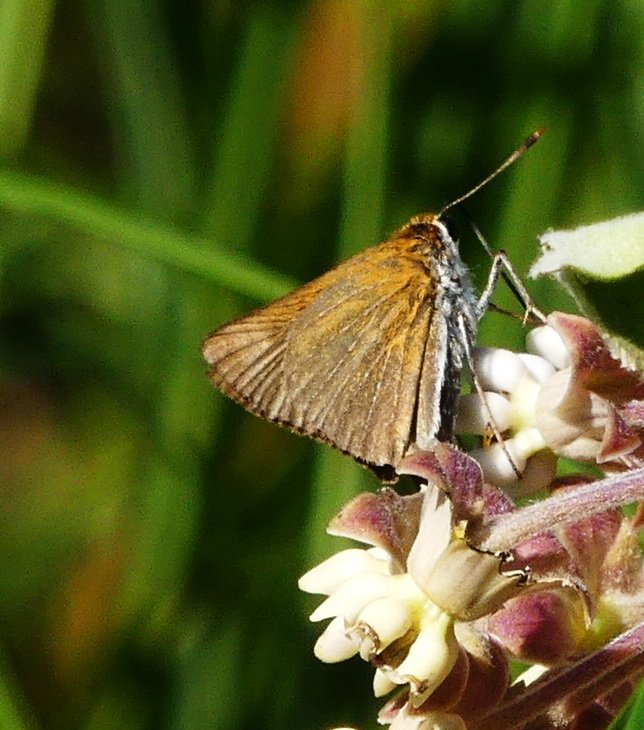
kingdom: Animalia
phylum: Arthropoda
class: Insecta
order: Lepidoptera
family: Hesperiidae
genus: Euphyes
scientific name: Euphyes bimacula
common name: Two-spotted Skipper
